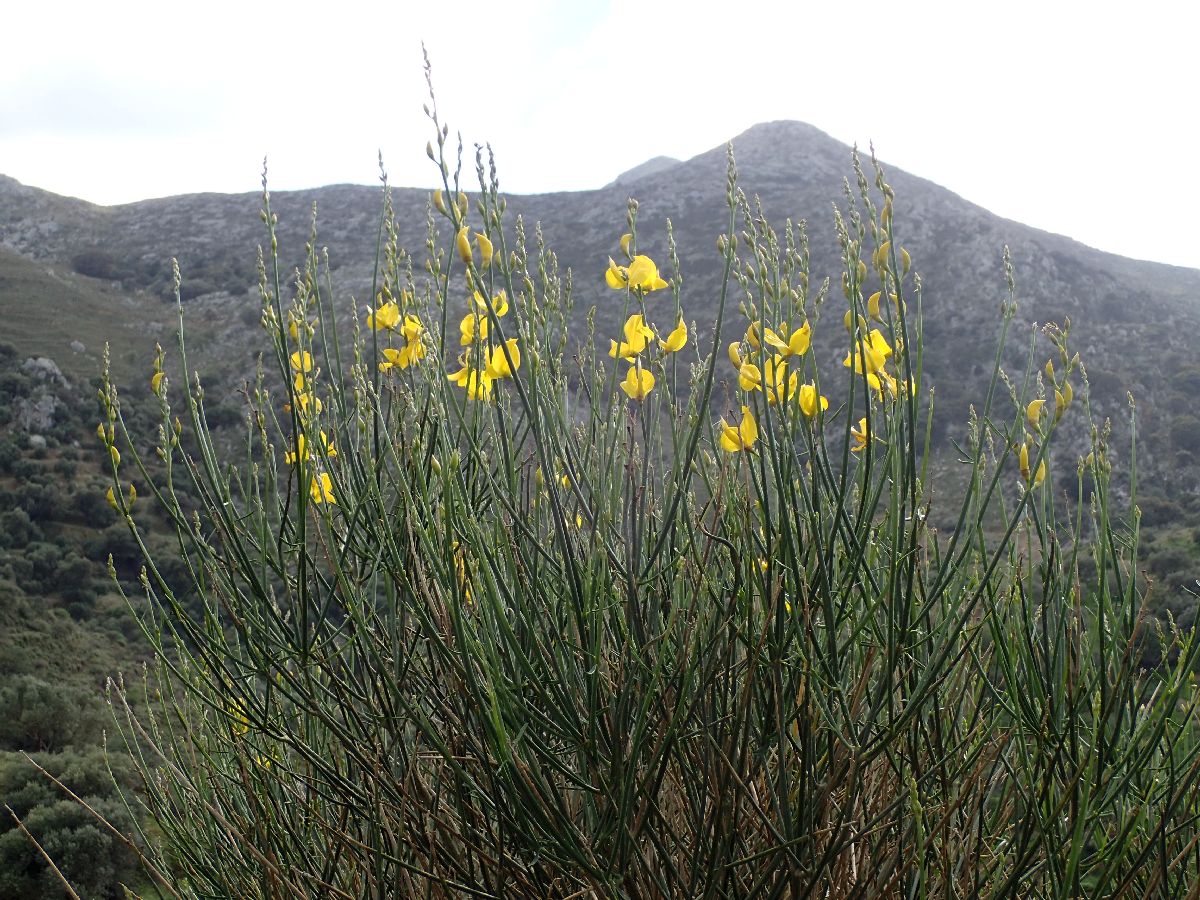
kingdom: Plantae
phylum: Tracheophyta
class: Magnoliopsida
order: Fabales
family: Fabaceae
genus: Spartium
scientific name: Spartium junceum
